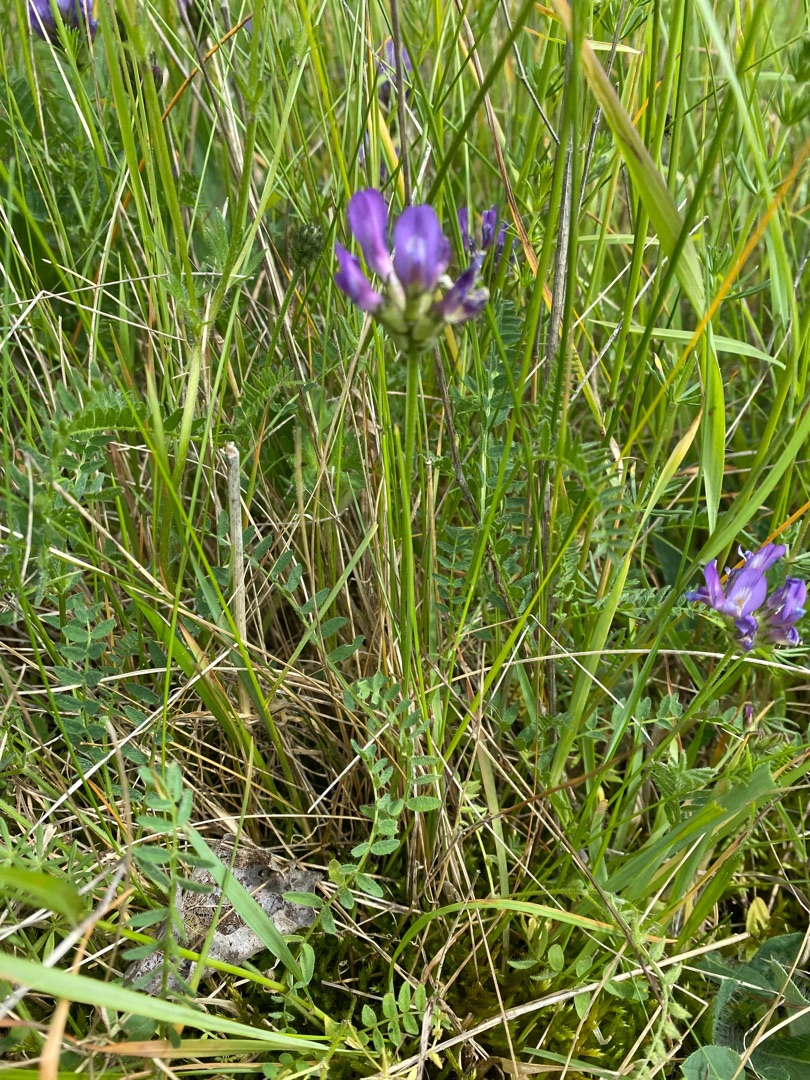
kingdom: Plantae
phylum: Tracheophyta
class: Magnoliopsida
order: Fabales
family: Fabaceae
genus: Astragalus
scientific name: Astragalus danicus
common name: Dansk astragel
